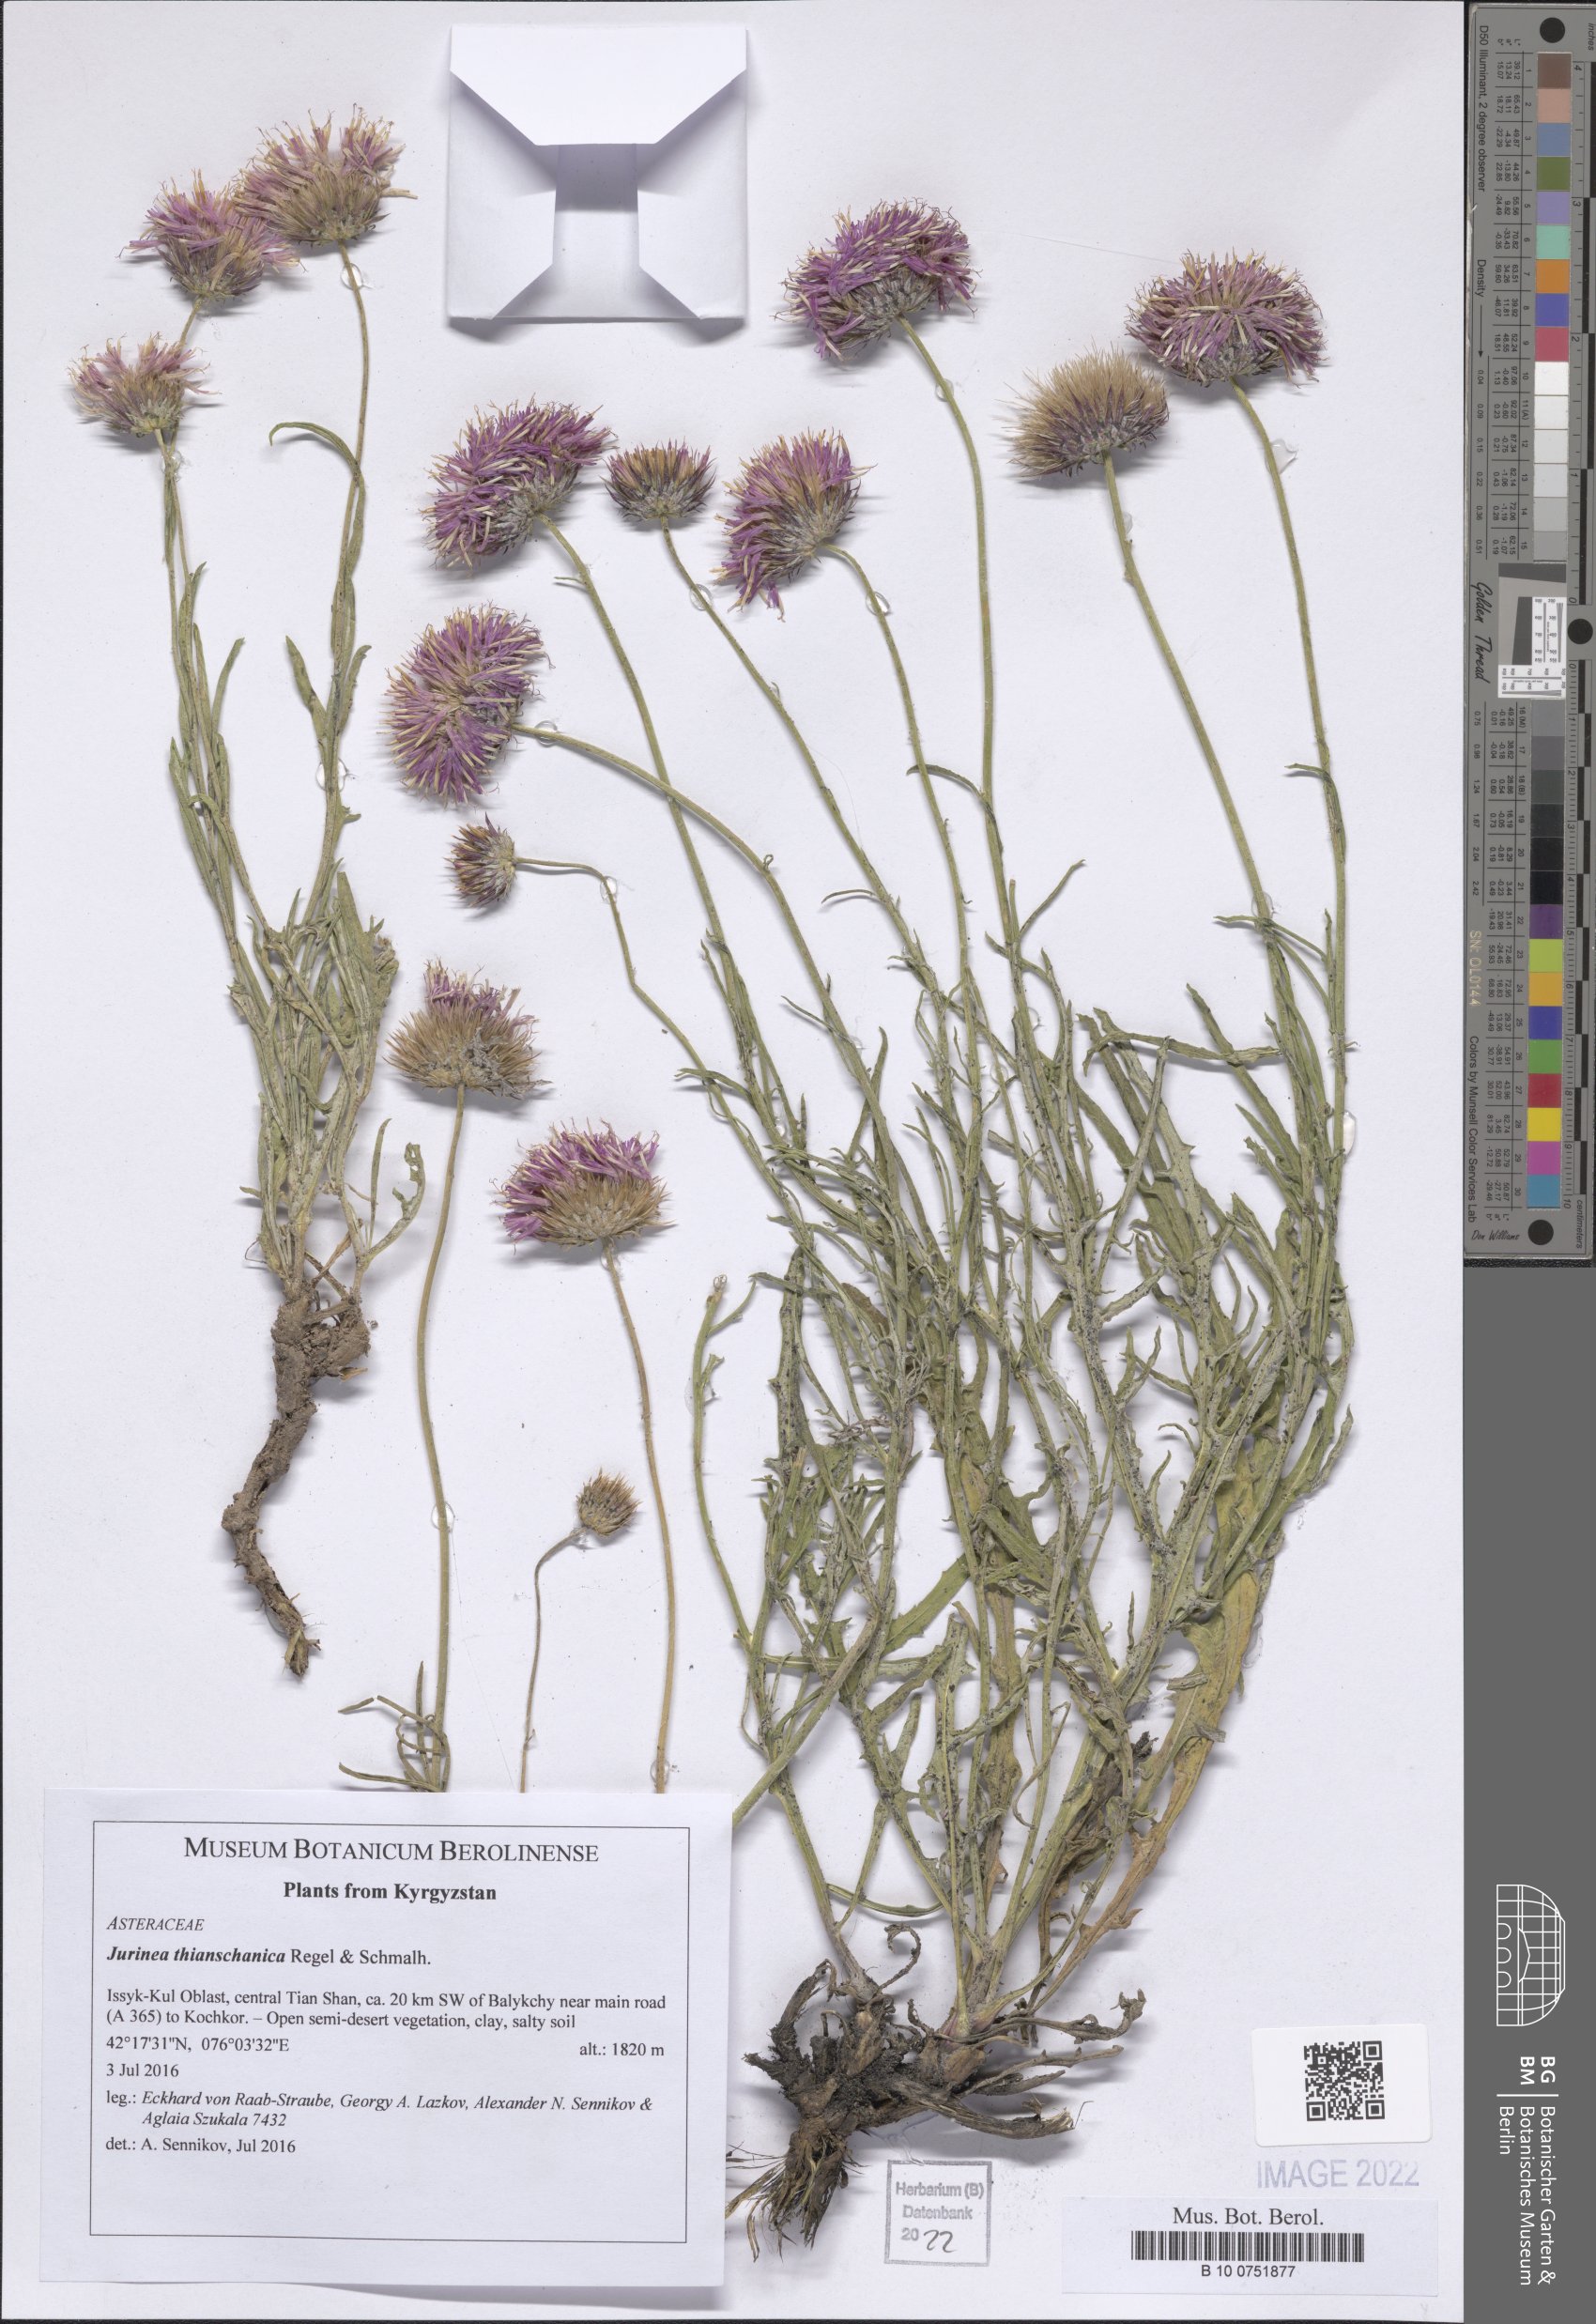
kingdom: Plantae
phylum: Tracheophyta
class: Magnoliopsida
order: Asterales
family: Asteraceae
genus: Jurinea
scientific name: Jurinea thianschanica
